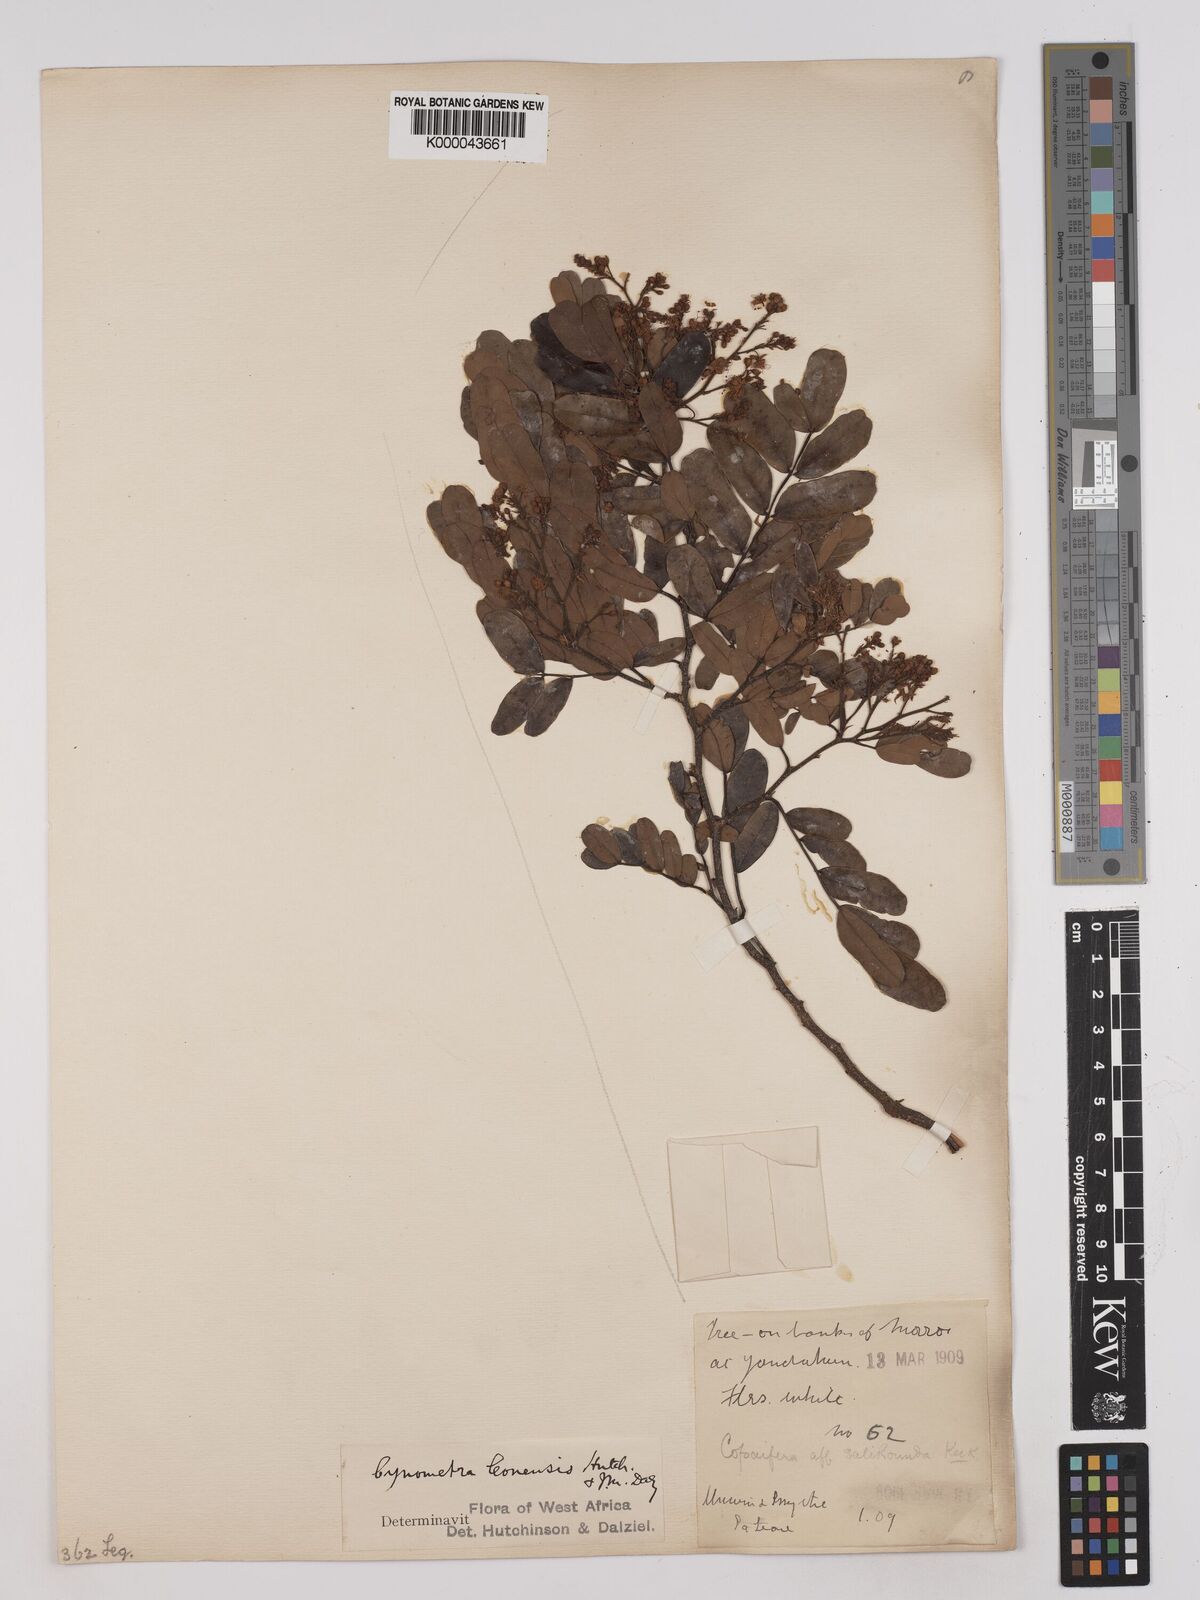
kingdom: Plantae
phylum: Tracheophyta
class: Magnoliopsida
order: Fabales
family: Fabaceae
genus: Cynometra
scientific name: Cynometra leonensis
